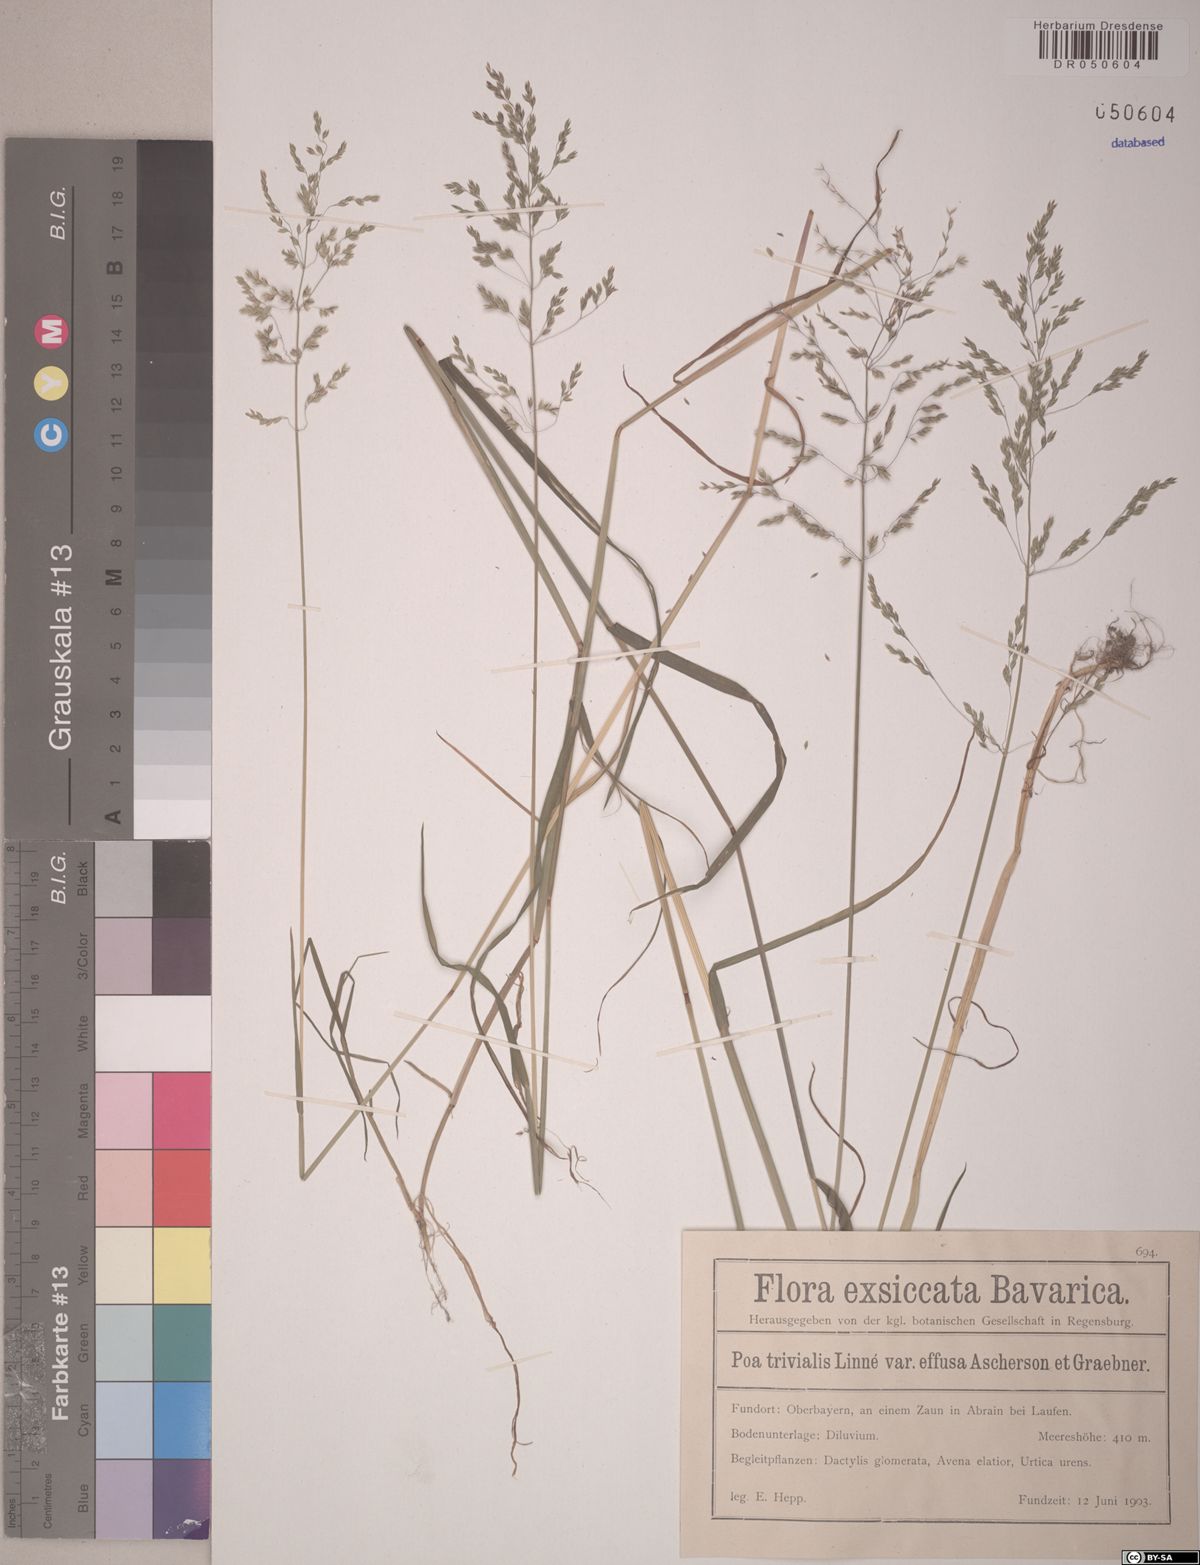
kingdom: Plantae
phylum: Tracheophyta
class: Liliopsida
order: Poales
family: Poaceae
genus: Poa
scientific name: Poa trivialis
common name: Rough bluegrass
